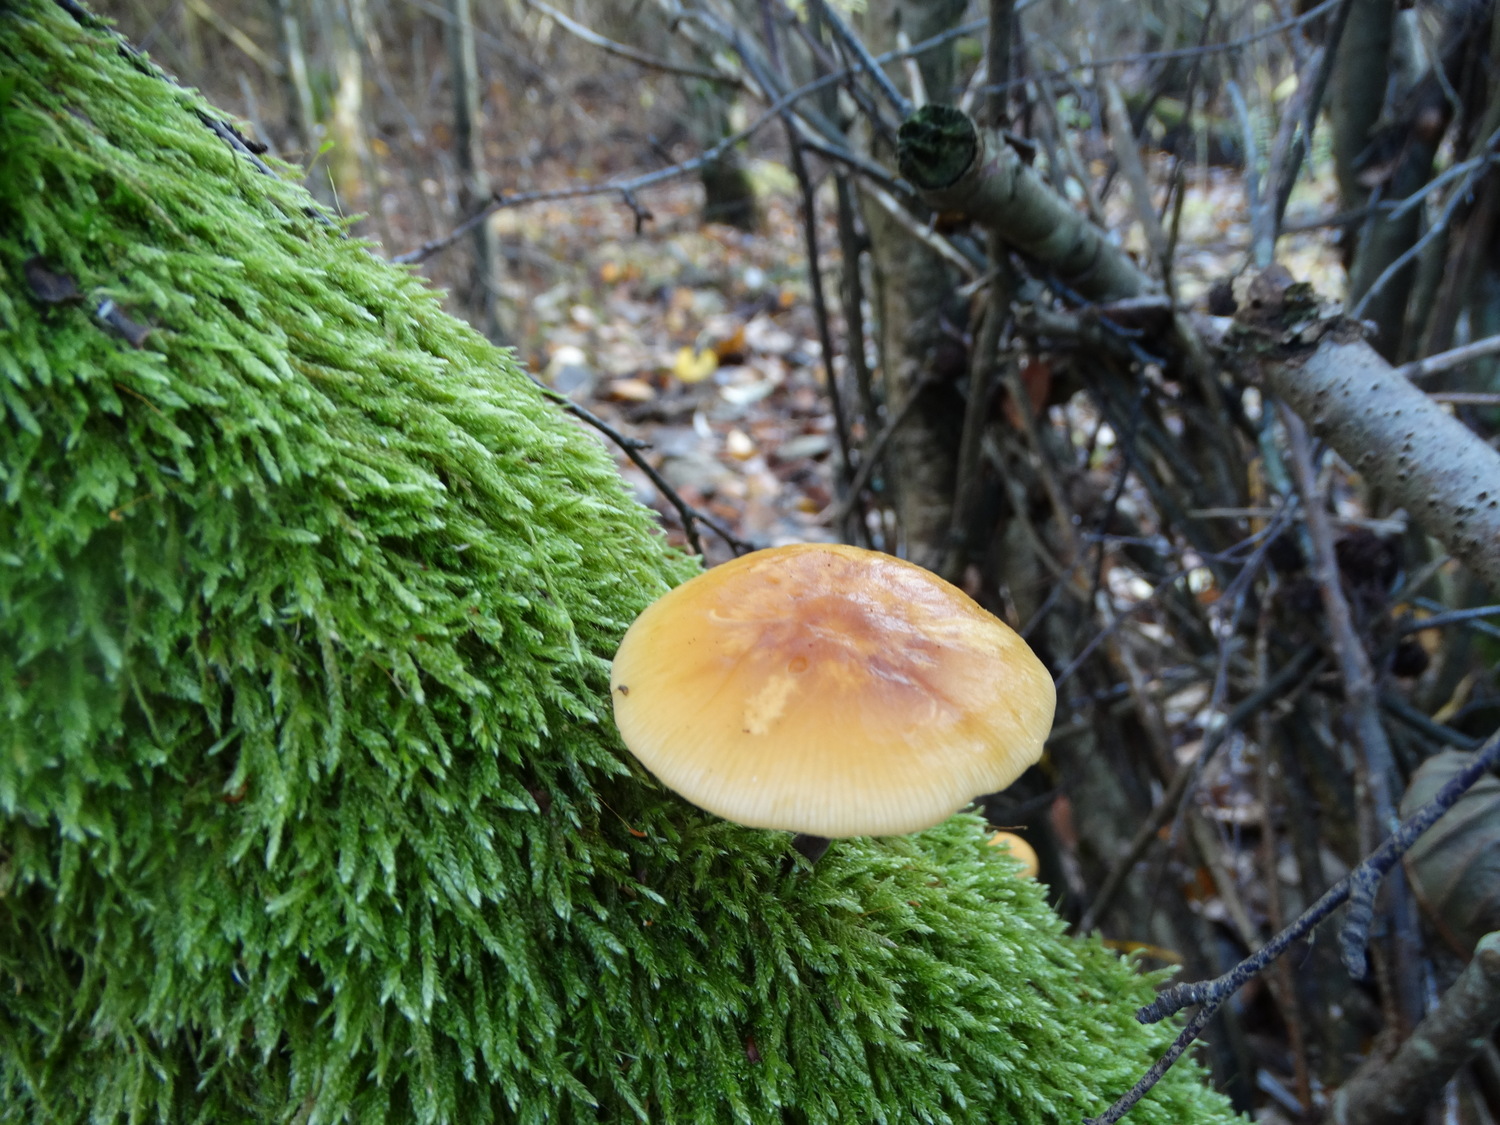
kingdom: Fungi
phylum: Basidiomycota
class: Agaricomycetes
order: Agaricales
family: Physalacriaceae
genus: Flammulina
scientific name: Flammulina
